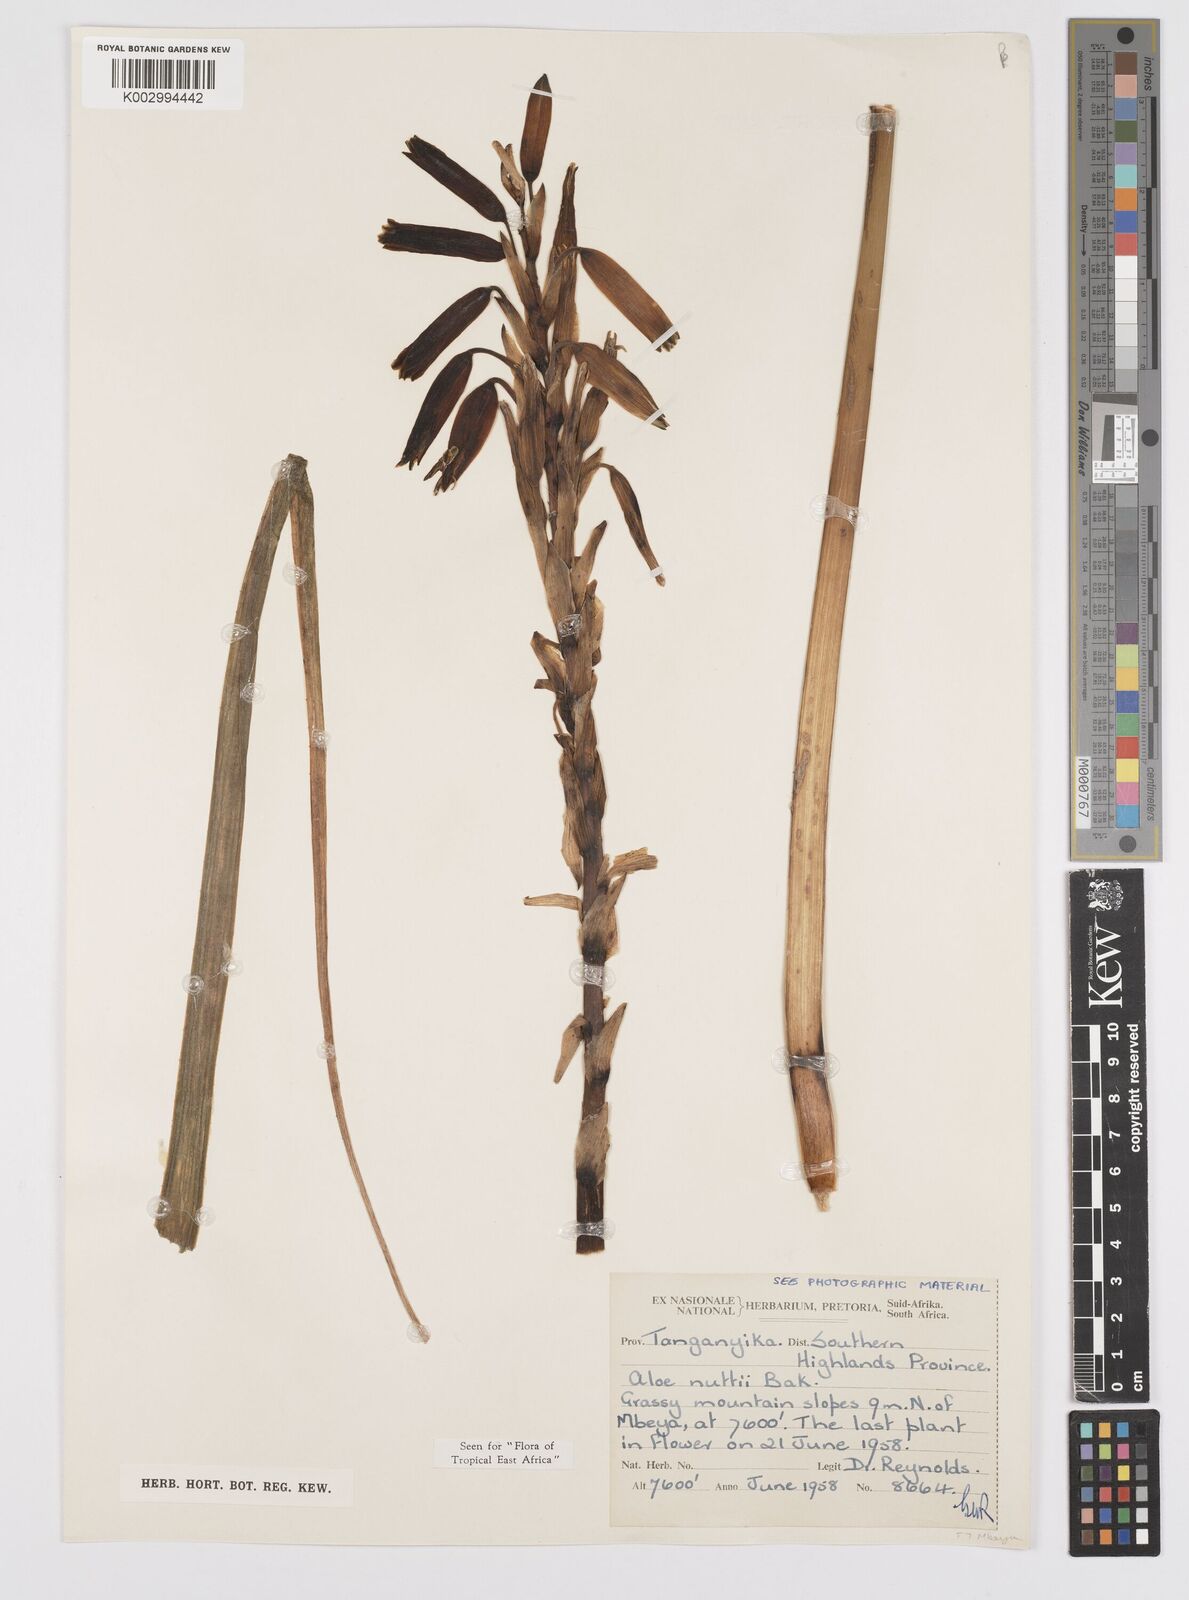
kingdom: Plantae
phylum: Tracheophyta
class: Liliopsida
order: Asparagales
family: Asphodelaceae
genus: Aloe
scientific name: Aloe nuttii
